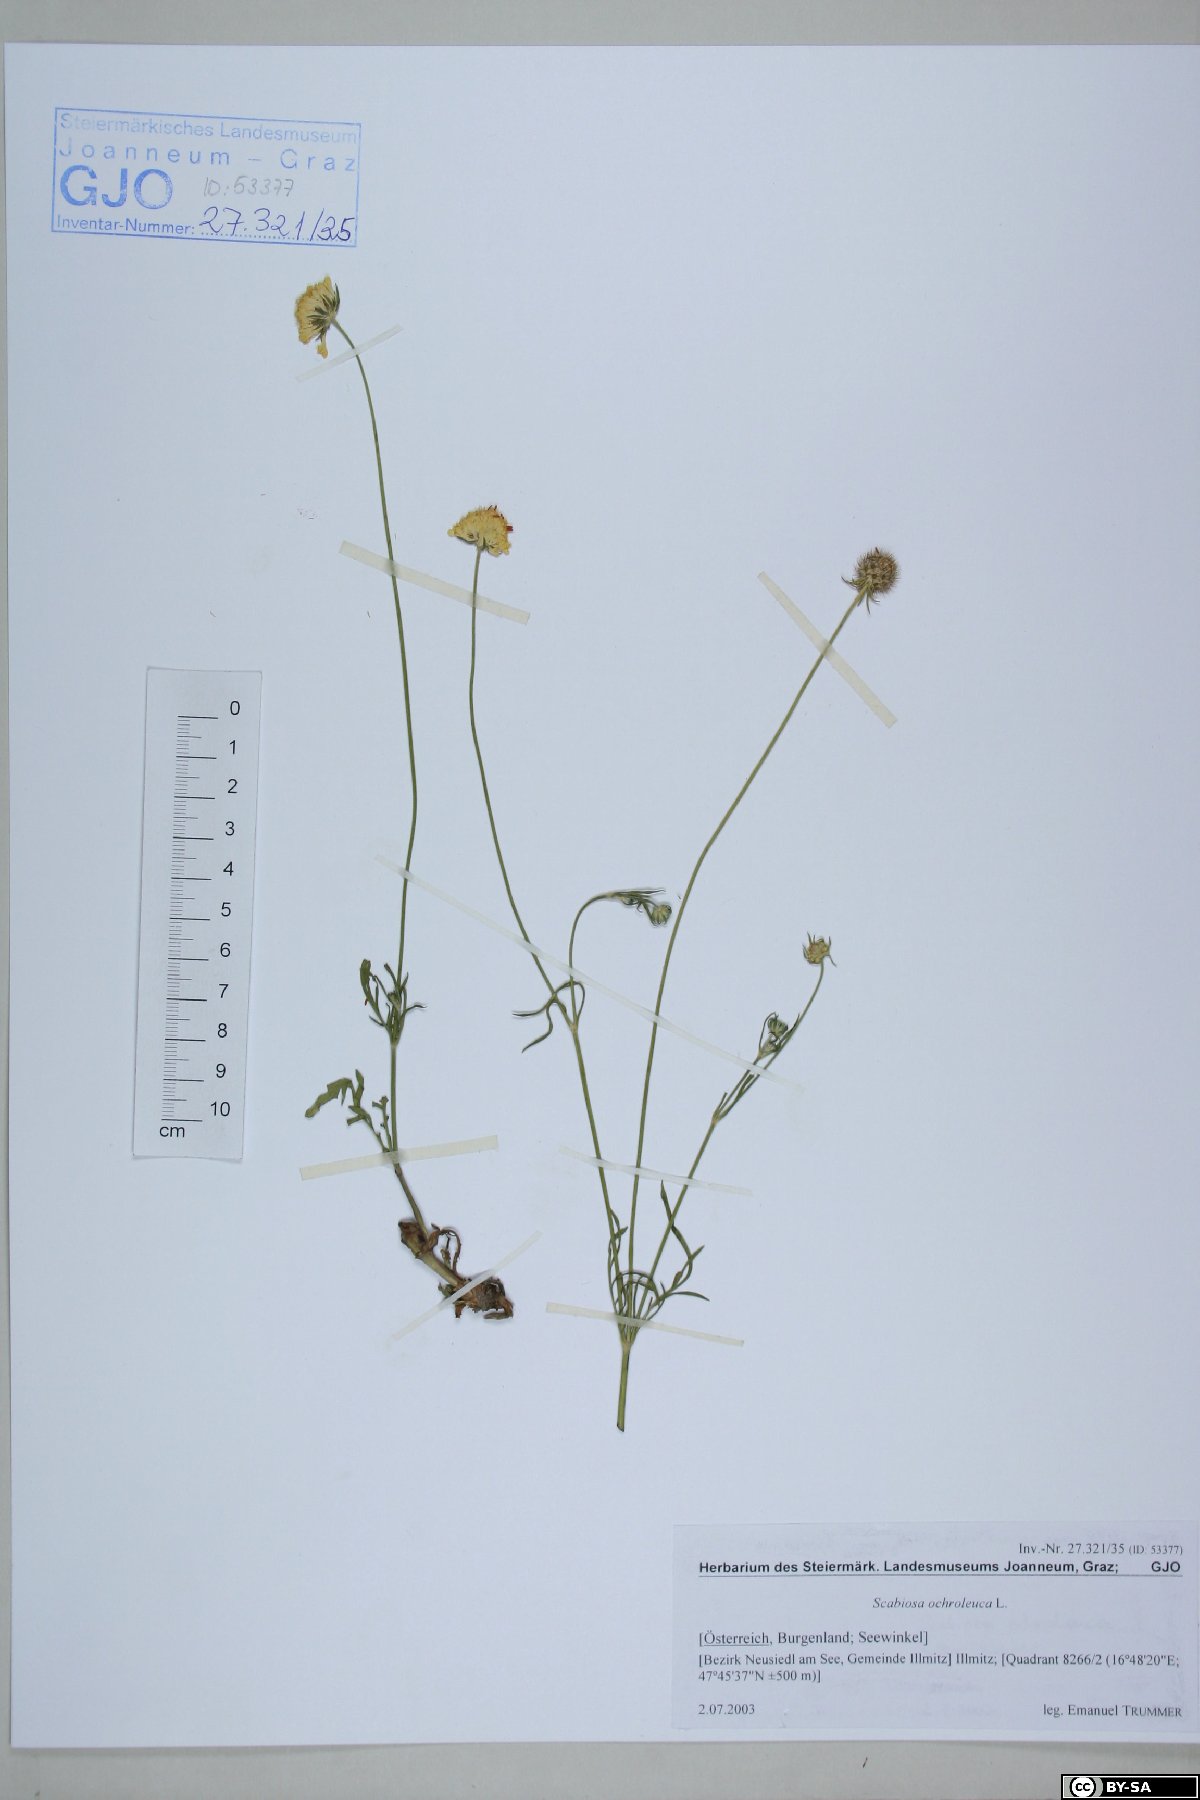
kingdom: Plantae
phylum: Tracheophyta
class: Magnoliopsida
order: Dipsacales
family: Caprifoliaceae
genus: Scabiosa
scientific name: Scabiosa ochroleuca
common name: Cream pincushions
